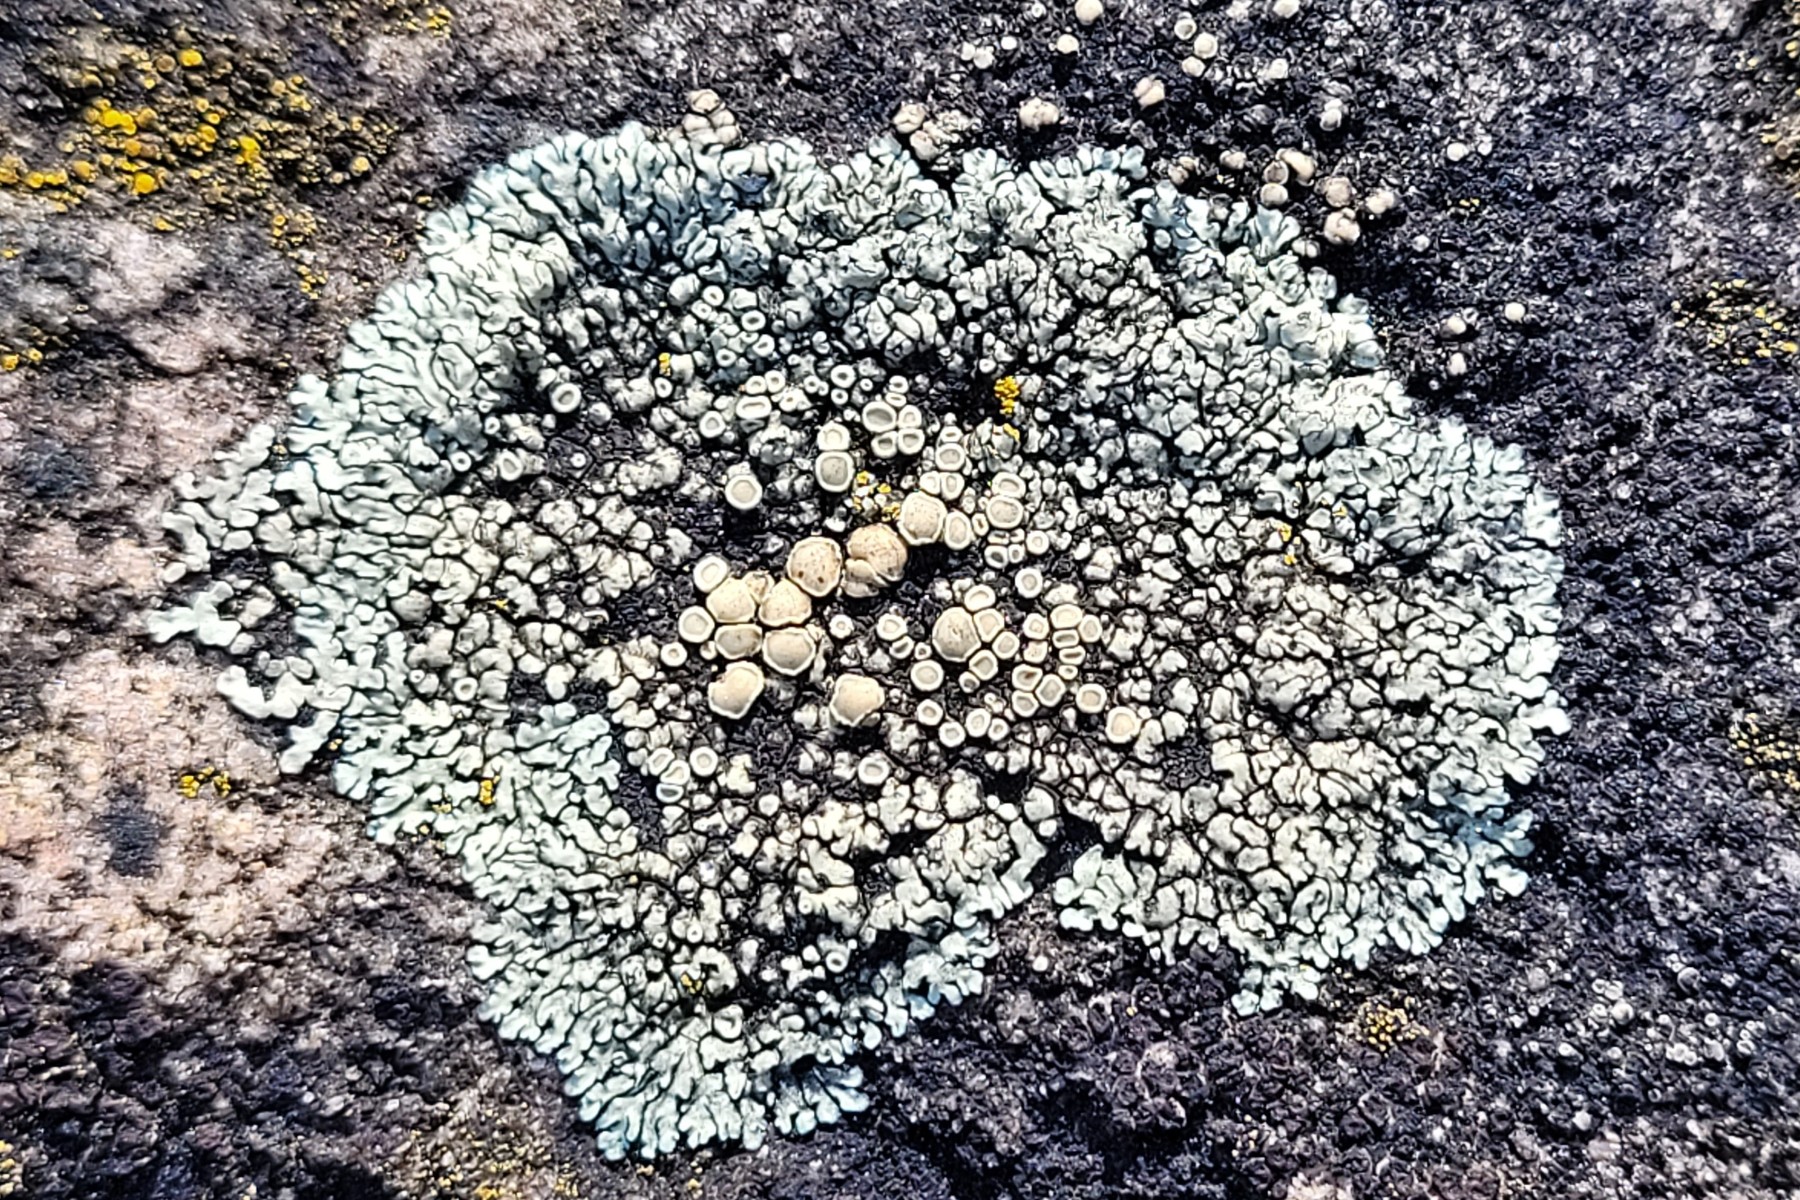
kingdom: Fungi
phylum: Ascomycota
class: Lecanoromycetes
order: Lecanorales
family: Lecanoraceae
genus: Protoparmeliopsis
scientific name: Protoparmeliopsis muralis
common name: randfliget kantskivelav
